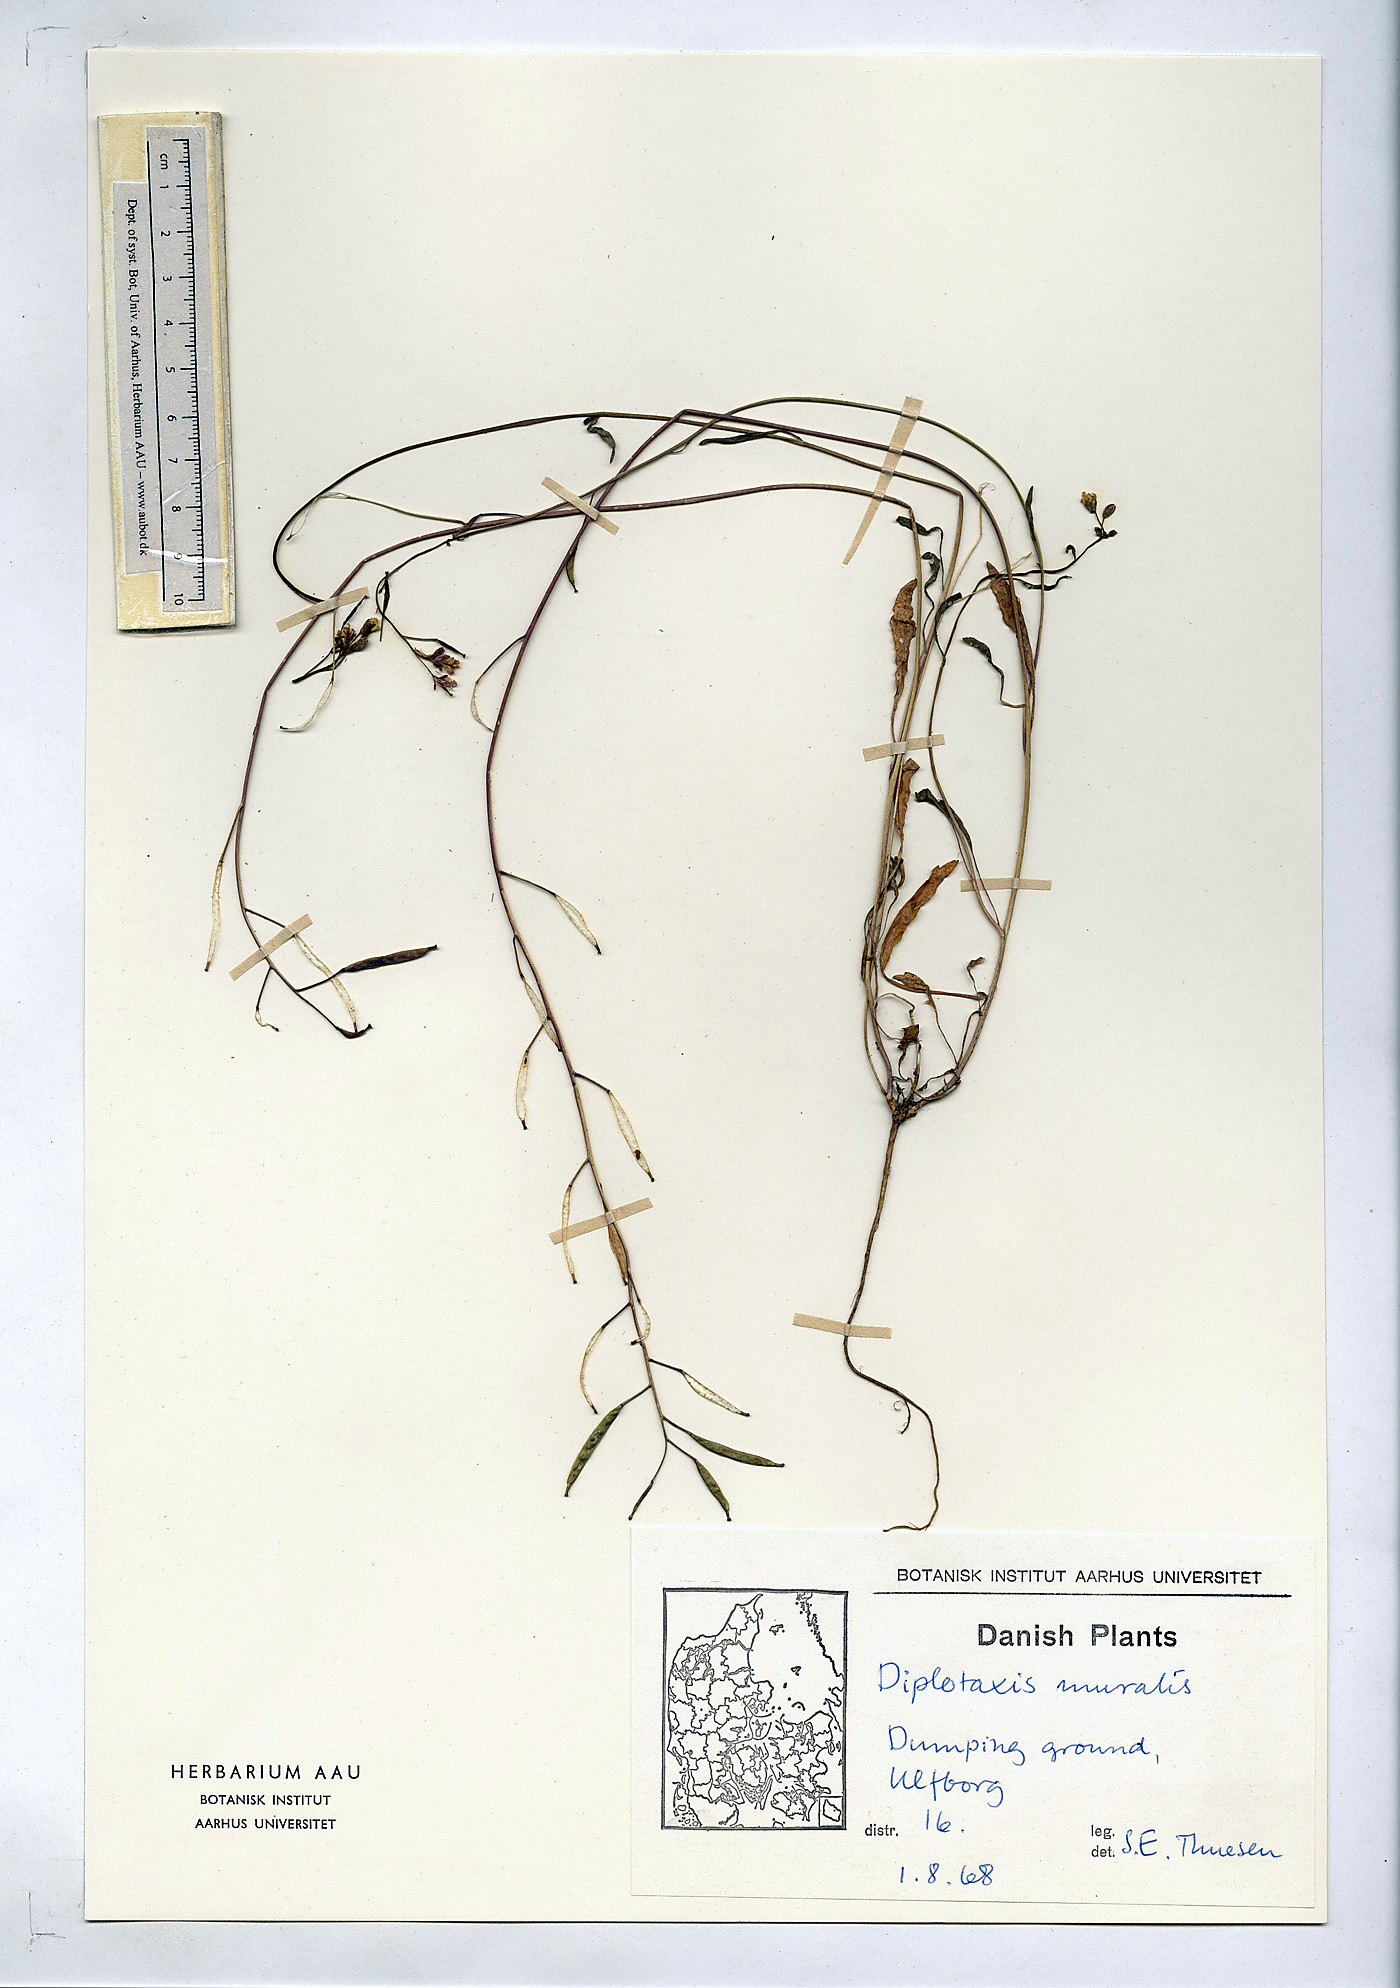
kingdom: Plantae
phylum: Tracheophyta
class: Magnoliopsida
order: Brassicales
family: Brassicaceae
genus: Diplotaxis
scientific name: Diplotaxis muralis
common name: Annual wall-rocket
